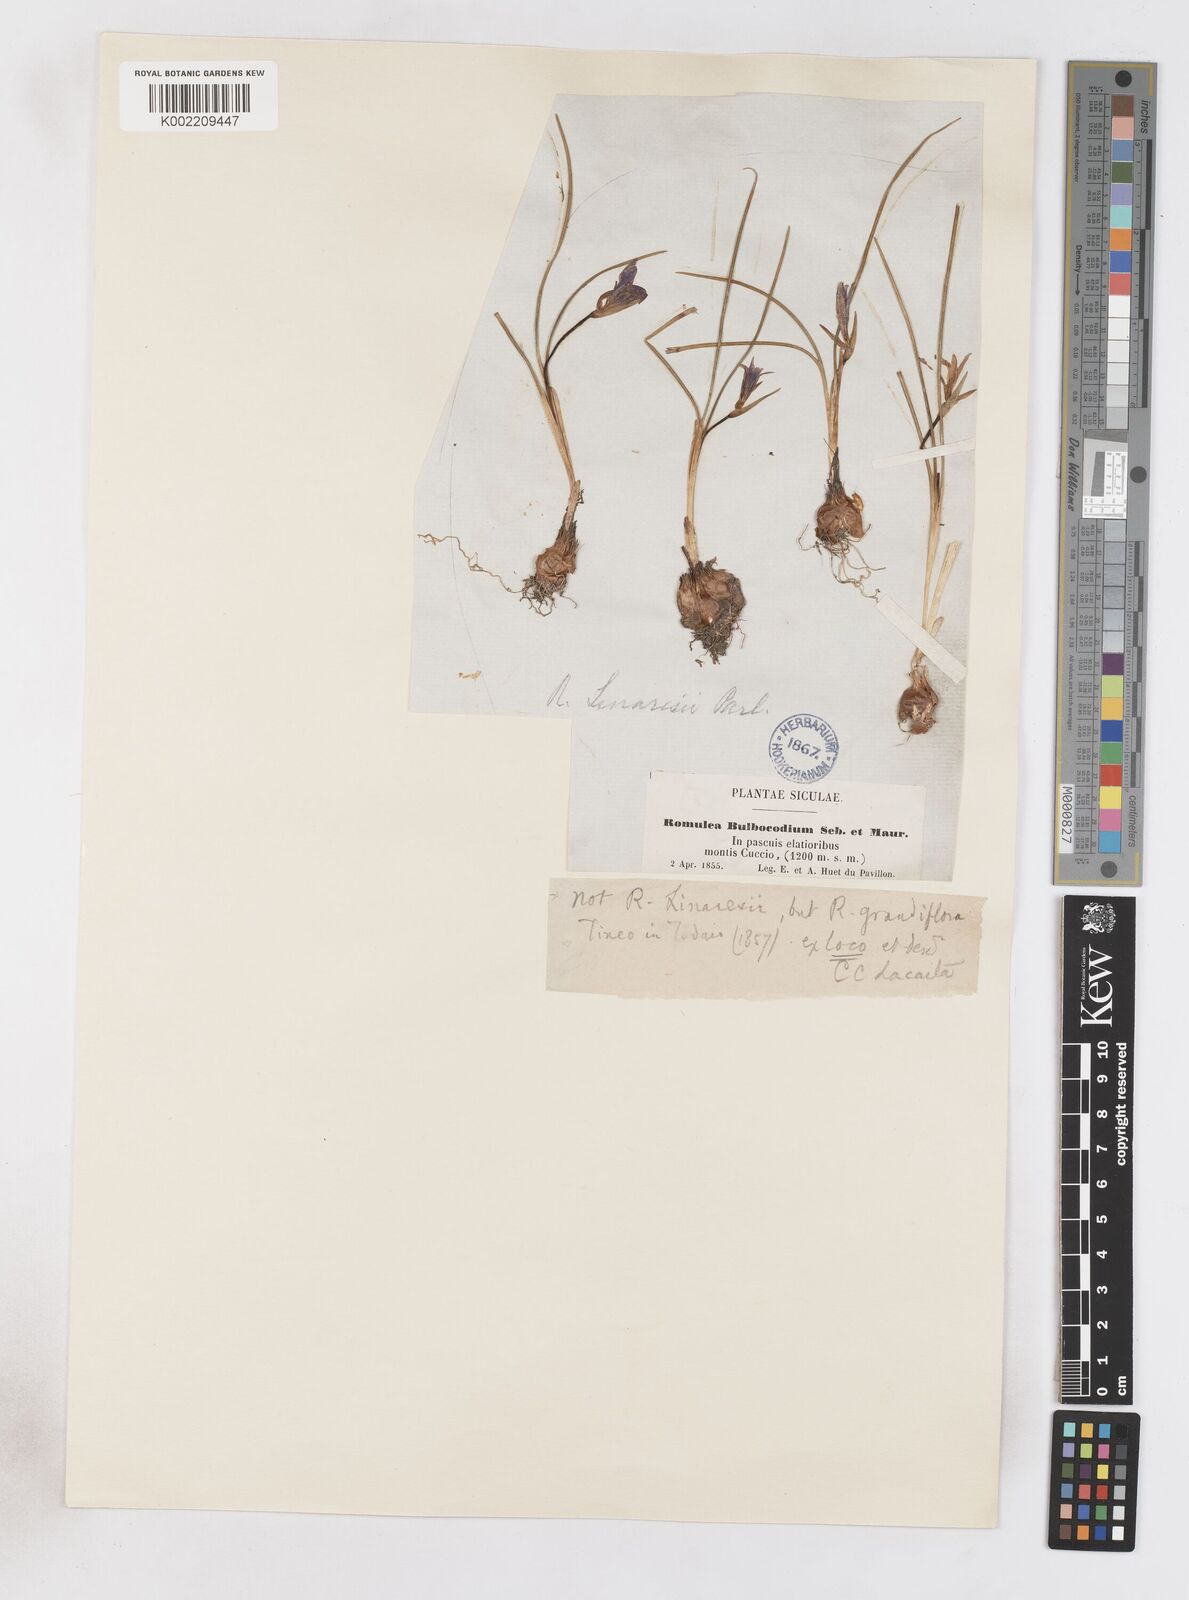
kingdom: Plantae
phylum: Tracheophyta
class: Liliopsida
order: Asparagales
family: Iridaceae
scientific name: Iridaceae
